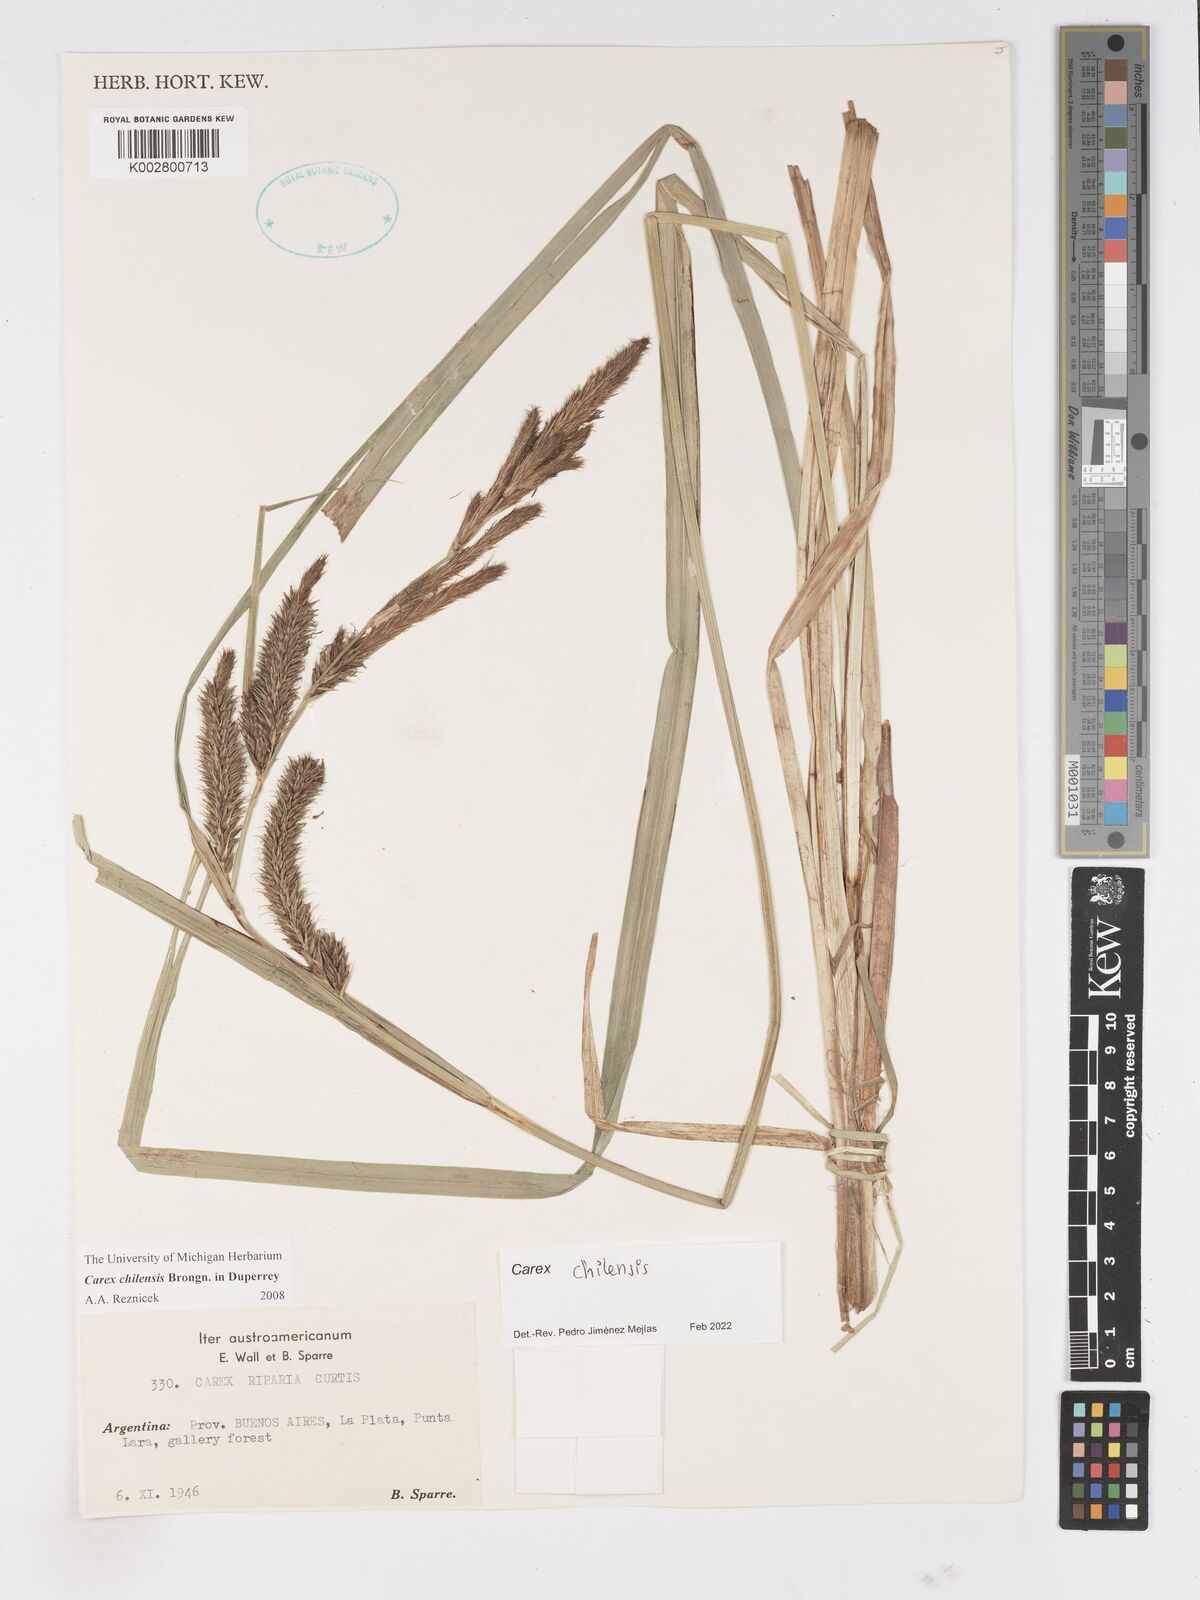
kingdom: Plantae
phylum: Tracheophyta
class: Liliopsida
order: Poales
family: Cyperaceae
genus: Carex
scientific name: Carex chilensis
